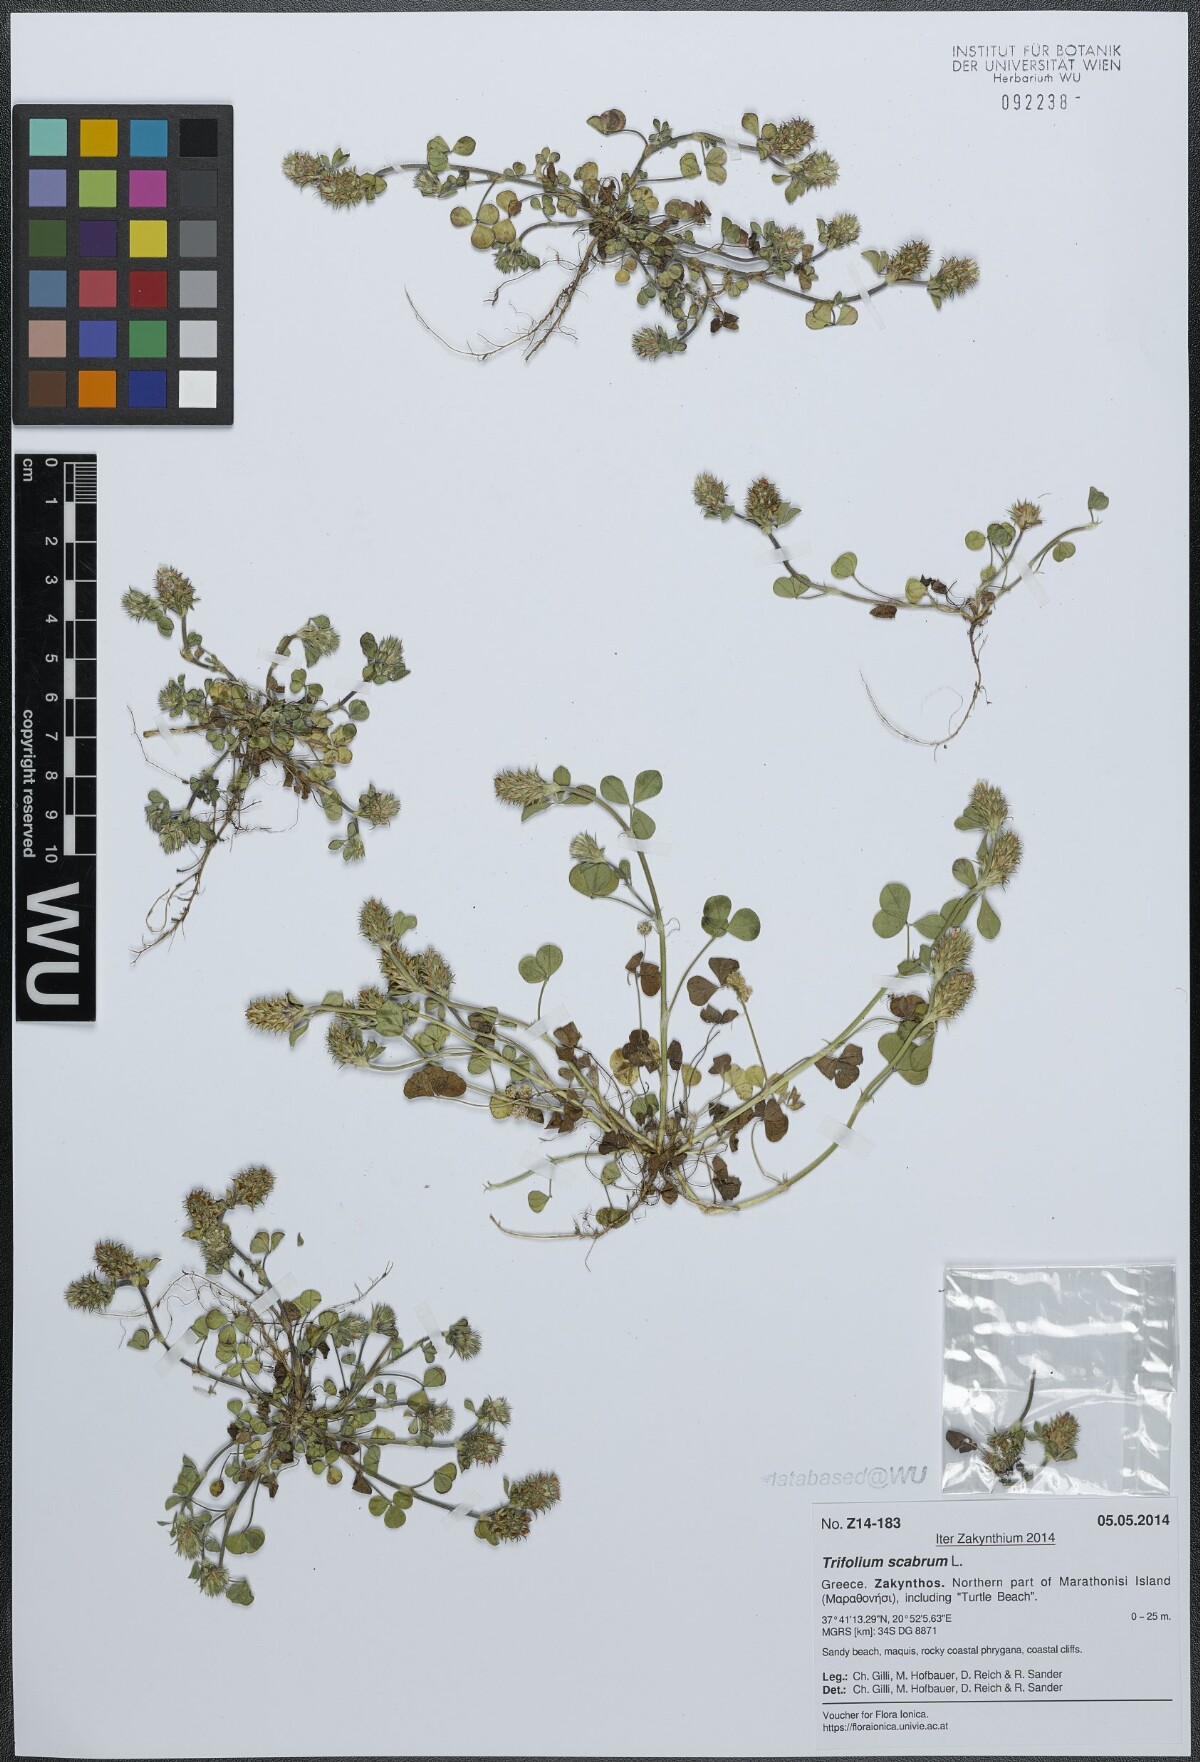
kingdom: Plantae
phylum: Tracheophyta
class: Magnoliopsida
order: Fabales
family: Fabaceae
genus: Trifolium
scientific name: Trifolium scabrum
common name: Rough clover
